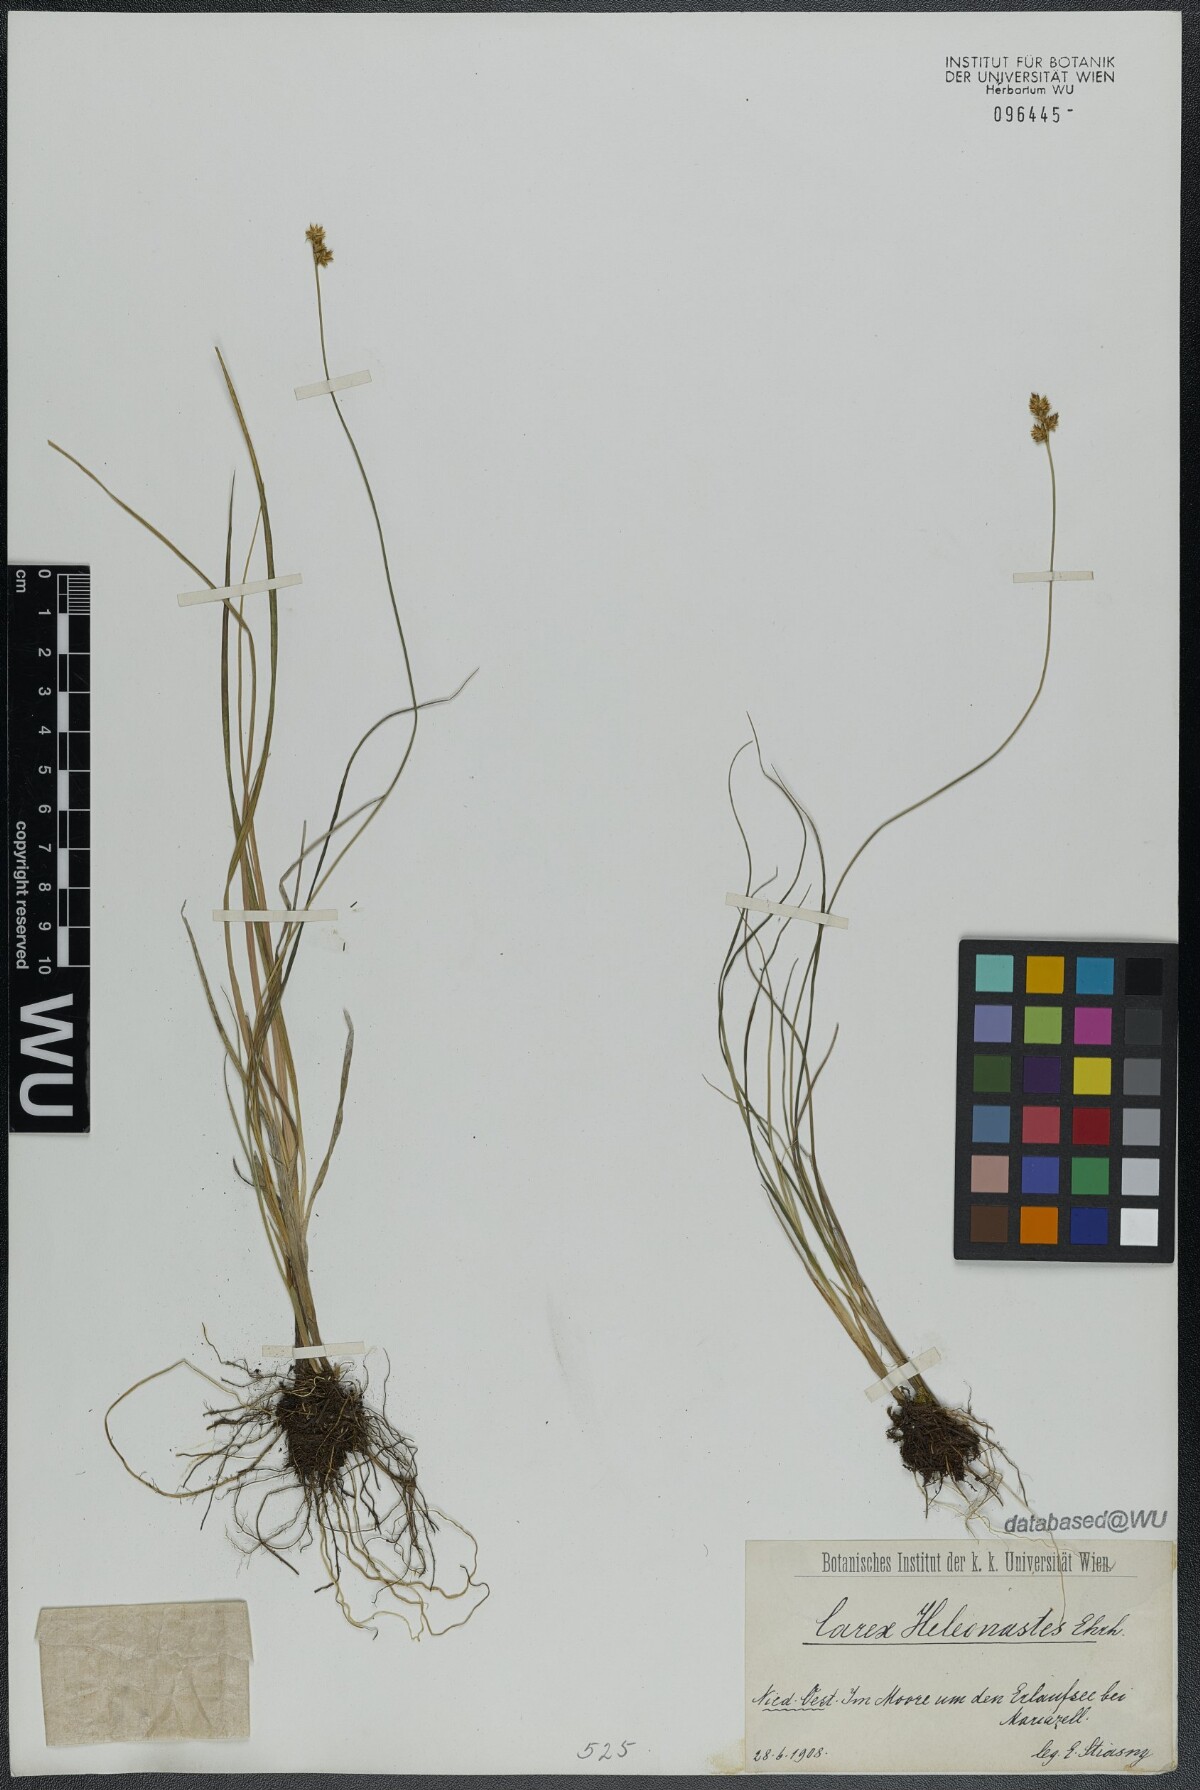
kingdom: Plantae
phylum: Tracheophyta
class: Liliopsida
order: Poales
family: Cyperaceae
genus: Carex
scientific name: Carex heleonastes
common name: Hudson bay sedge
